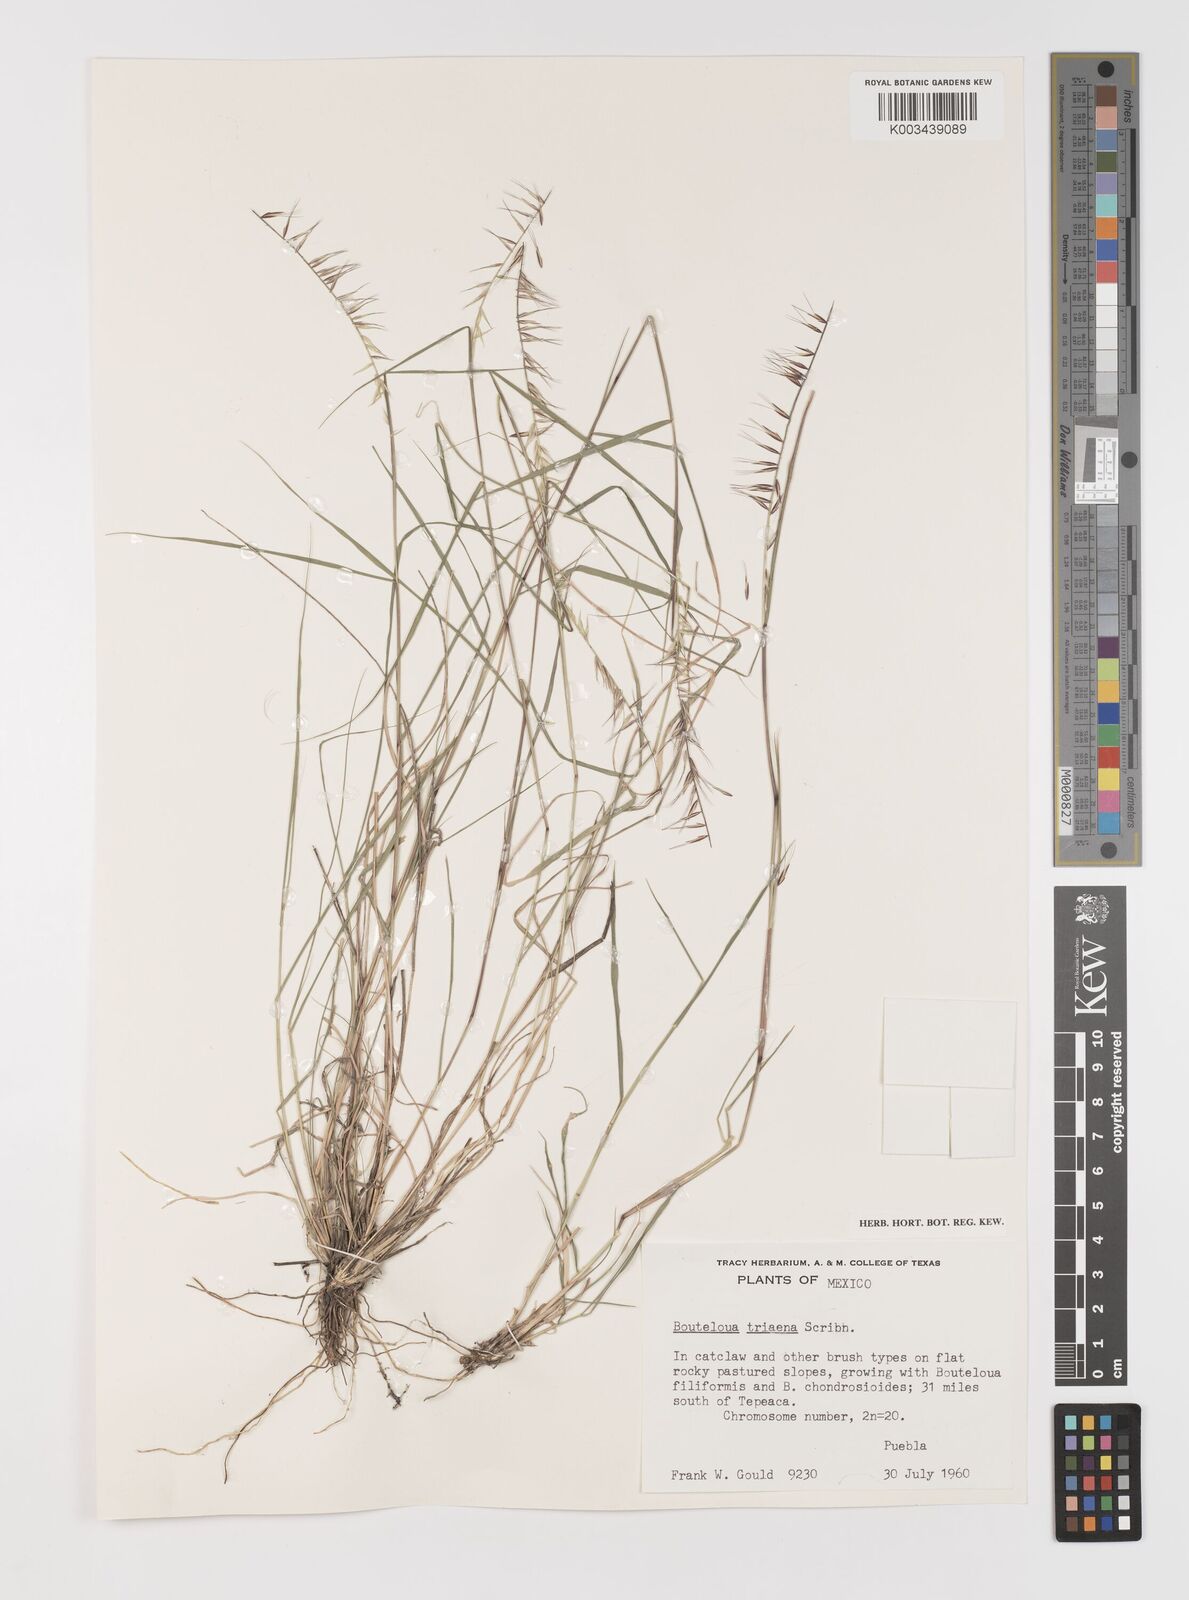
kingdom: Plantae
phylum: Tracheophyta
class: Liliopsida
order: Poales
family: Poaceae
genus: Bouteloua
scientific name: Bouteloua triaena
